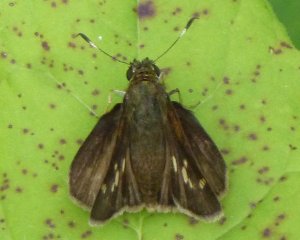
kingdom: Animalia
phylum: Arthropoda
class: Insecta
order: Lepidoptera
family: Hesperiidae
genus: Vernia
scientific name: Vernia verna
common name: Little Glassywing
